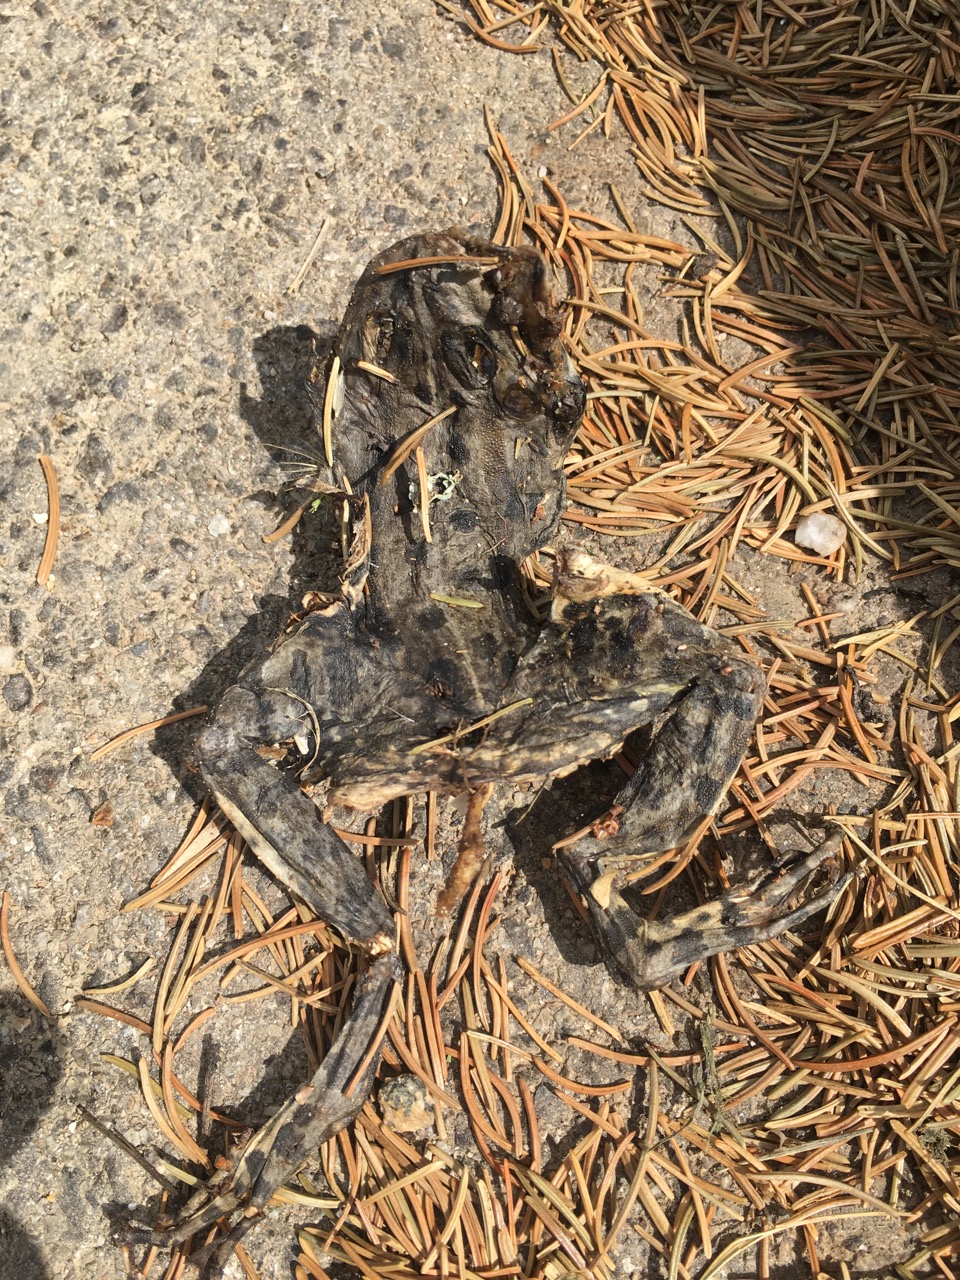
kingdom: Animalia
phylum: Chordata
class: Amphibia
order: Anura
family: Bufonidae
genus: Bufotes
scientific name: Bufotes viridis
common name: European green toad
